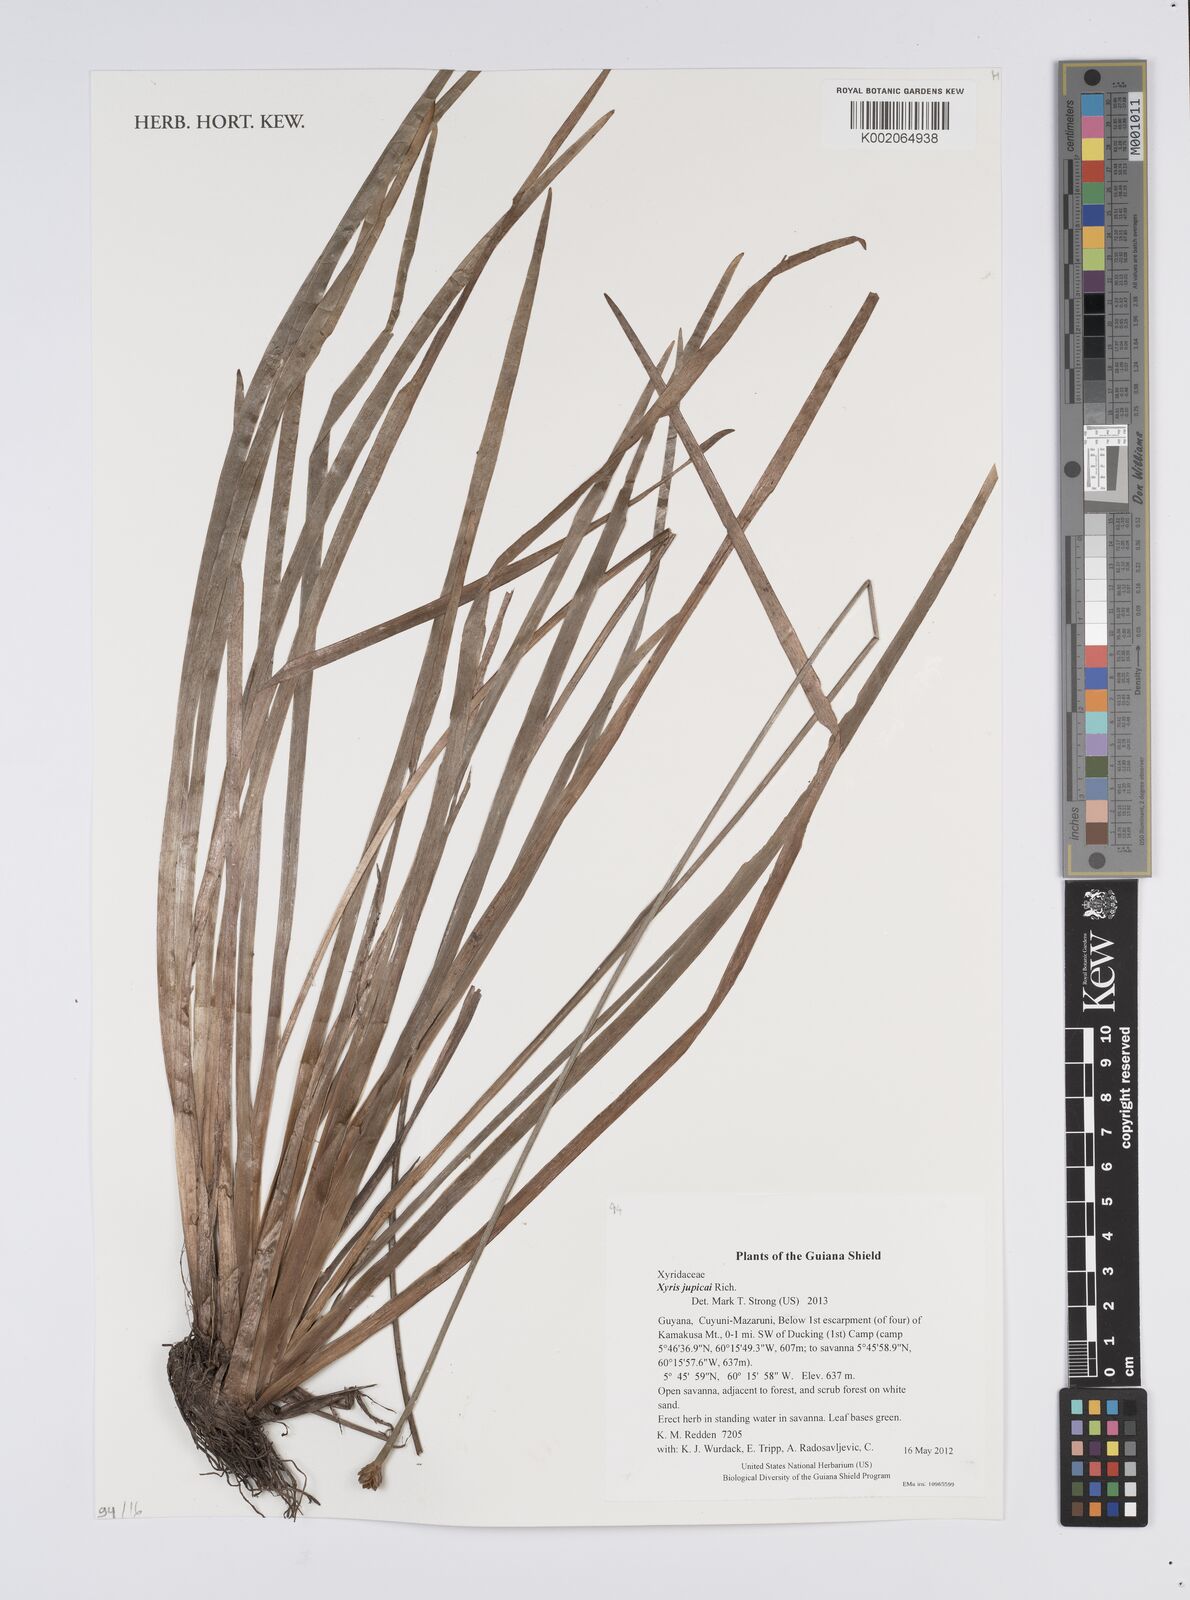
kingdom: Plantae
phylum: Tracheophyta
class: Liliopsida
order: Poales
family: Xyridaceae
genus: Xyris
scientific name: Xyris jupicai
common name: Richard's yelloweyed grass
